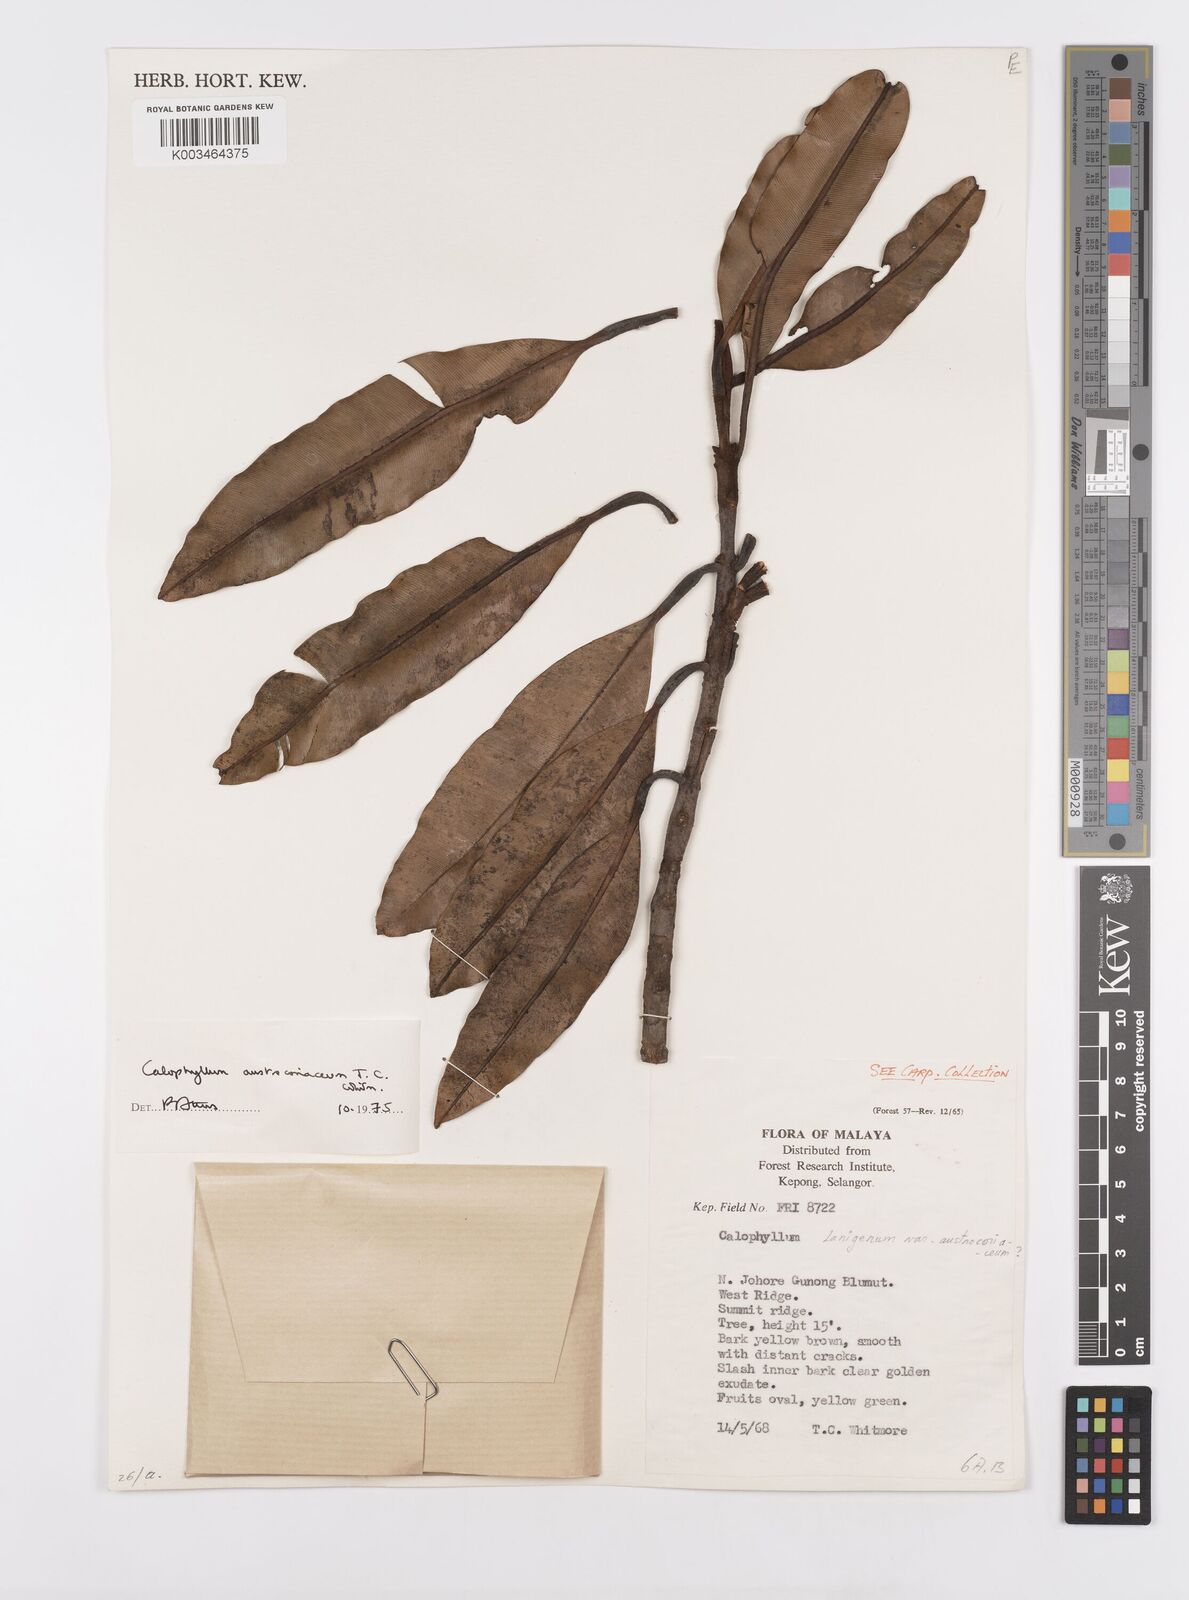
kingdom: Plantae
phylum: Tracheophyta
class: Magnoliopsida
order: Malpighiales
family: Calophyllaceae
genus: Calophyllum
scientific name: Calophyllum lanigerum
